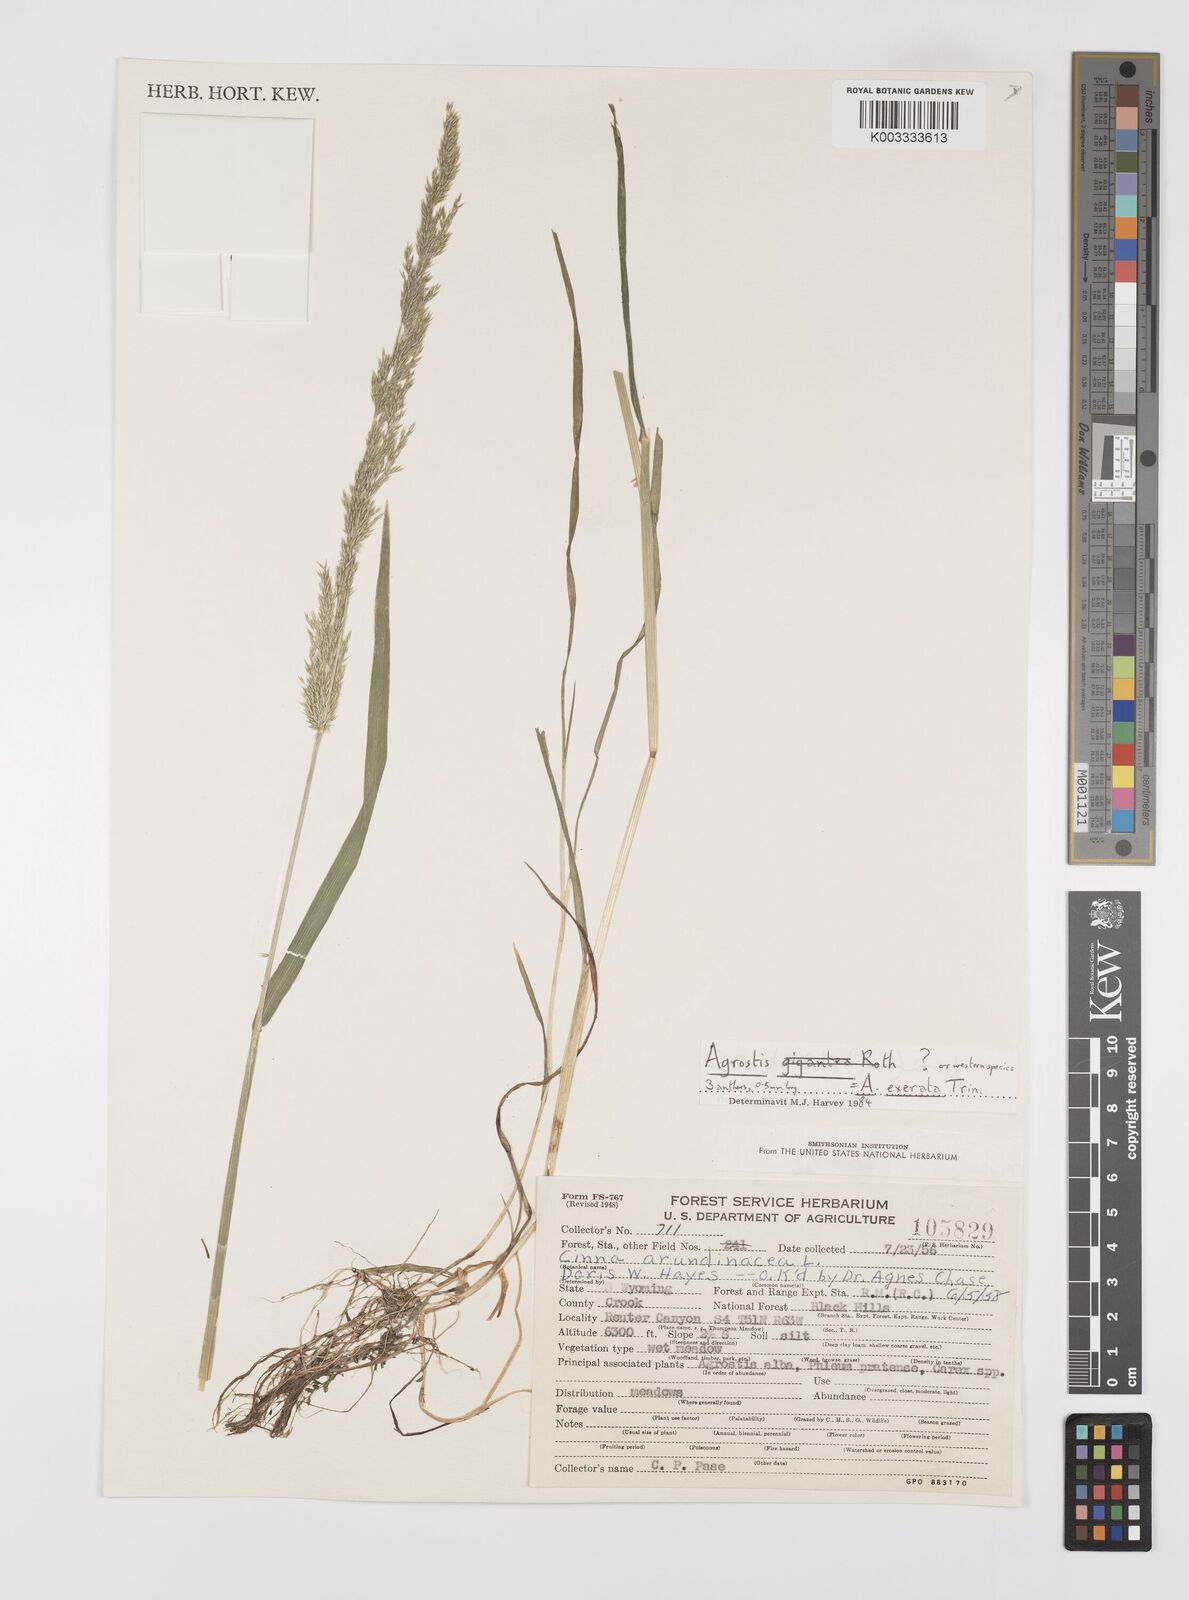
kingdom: Plantae
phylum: Tracheophyta
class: Liliopsida
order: Poales
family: Poaceae
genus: Cinna
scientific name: Cinna latifolia
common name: Drooping woodreed
